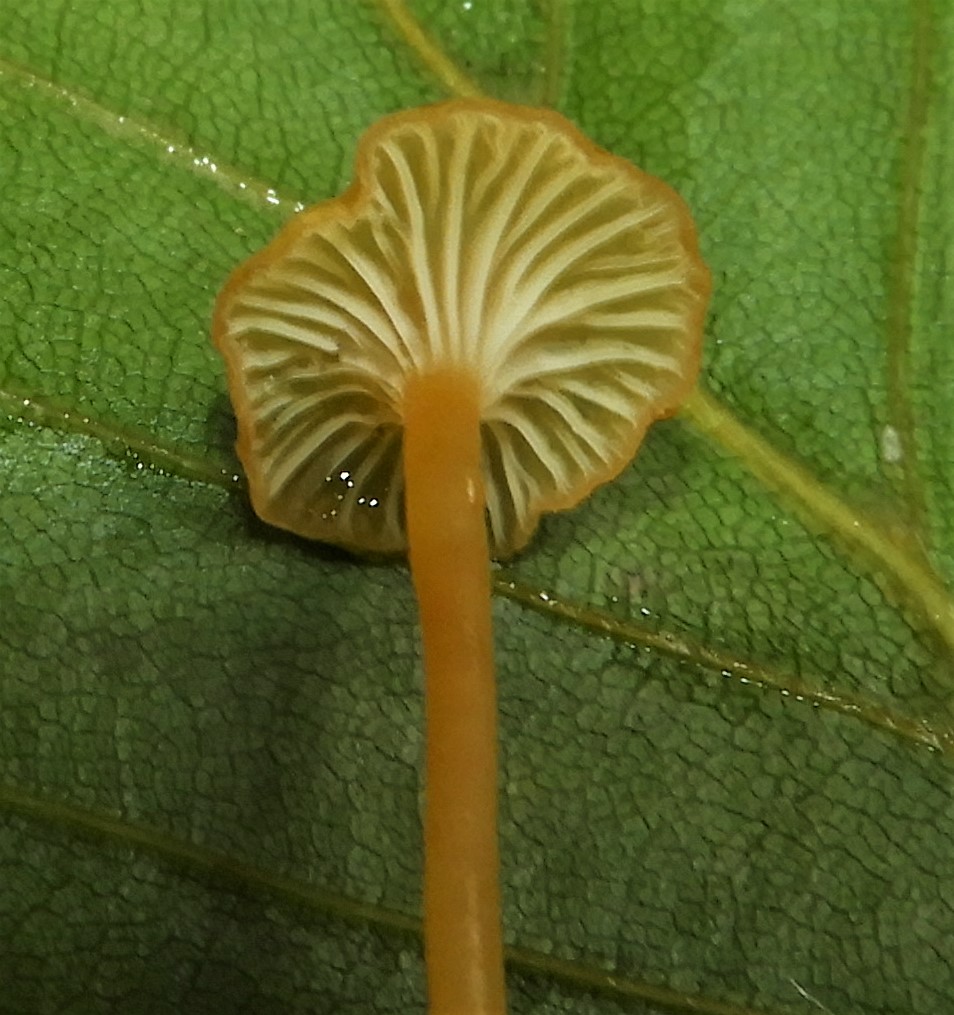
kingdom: Fungi
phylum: Basidiomycota
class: Agaricomycetes
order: Hymenochaetales
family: Rickenellaceae
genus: Rickenella
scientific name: Rickenella fibula
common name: orange mosnavlehat
